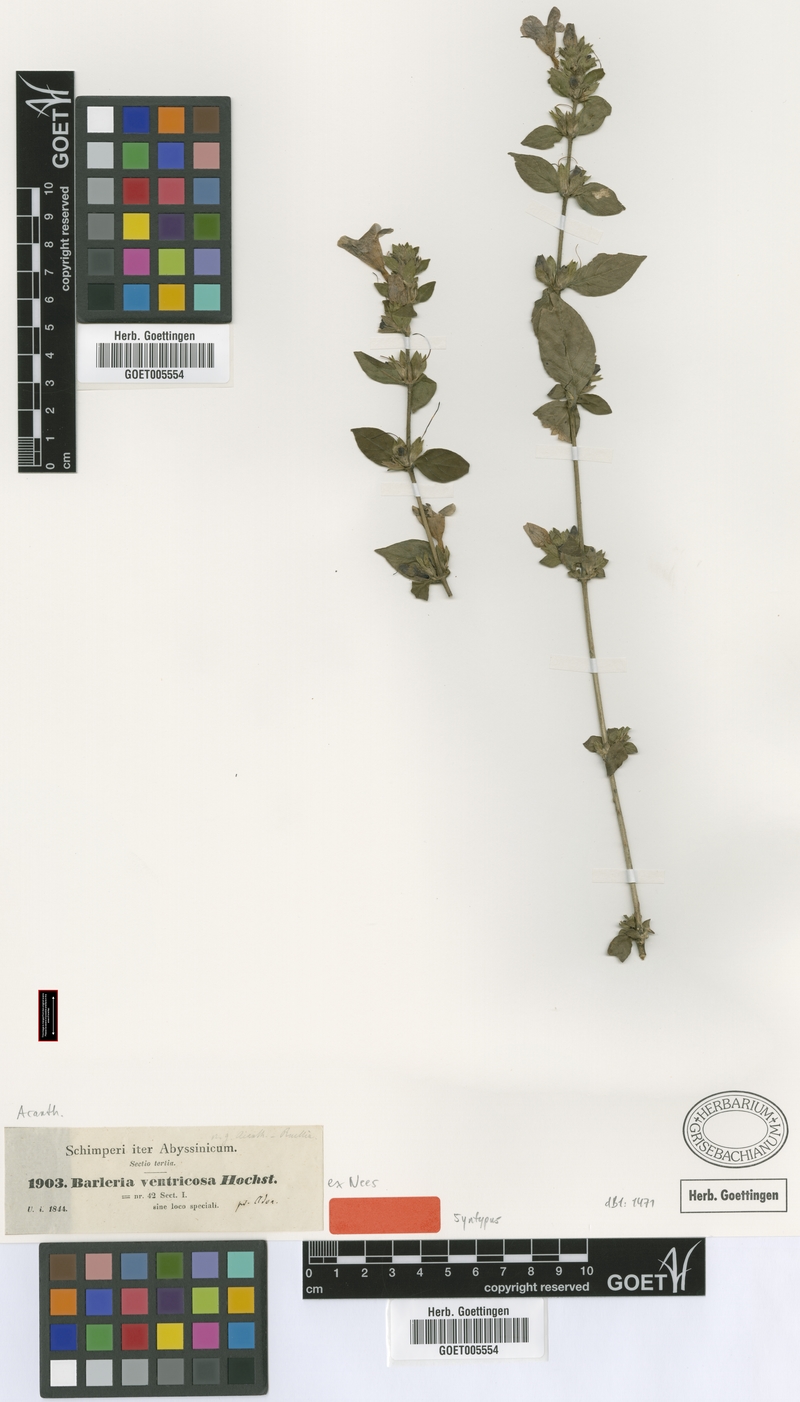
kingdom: Plantae
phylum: Tracheophyta
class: Magnoliopsida
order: Lamiales
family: Acanthaceae
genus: Barleria
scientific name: Barleria ventricosa
